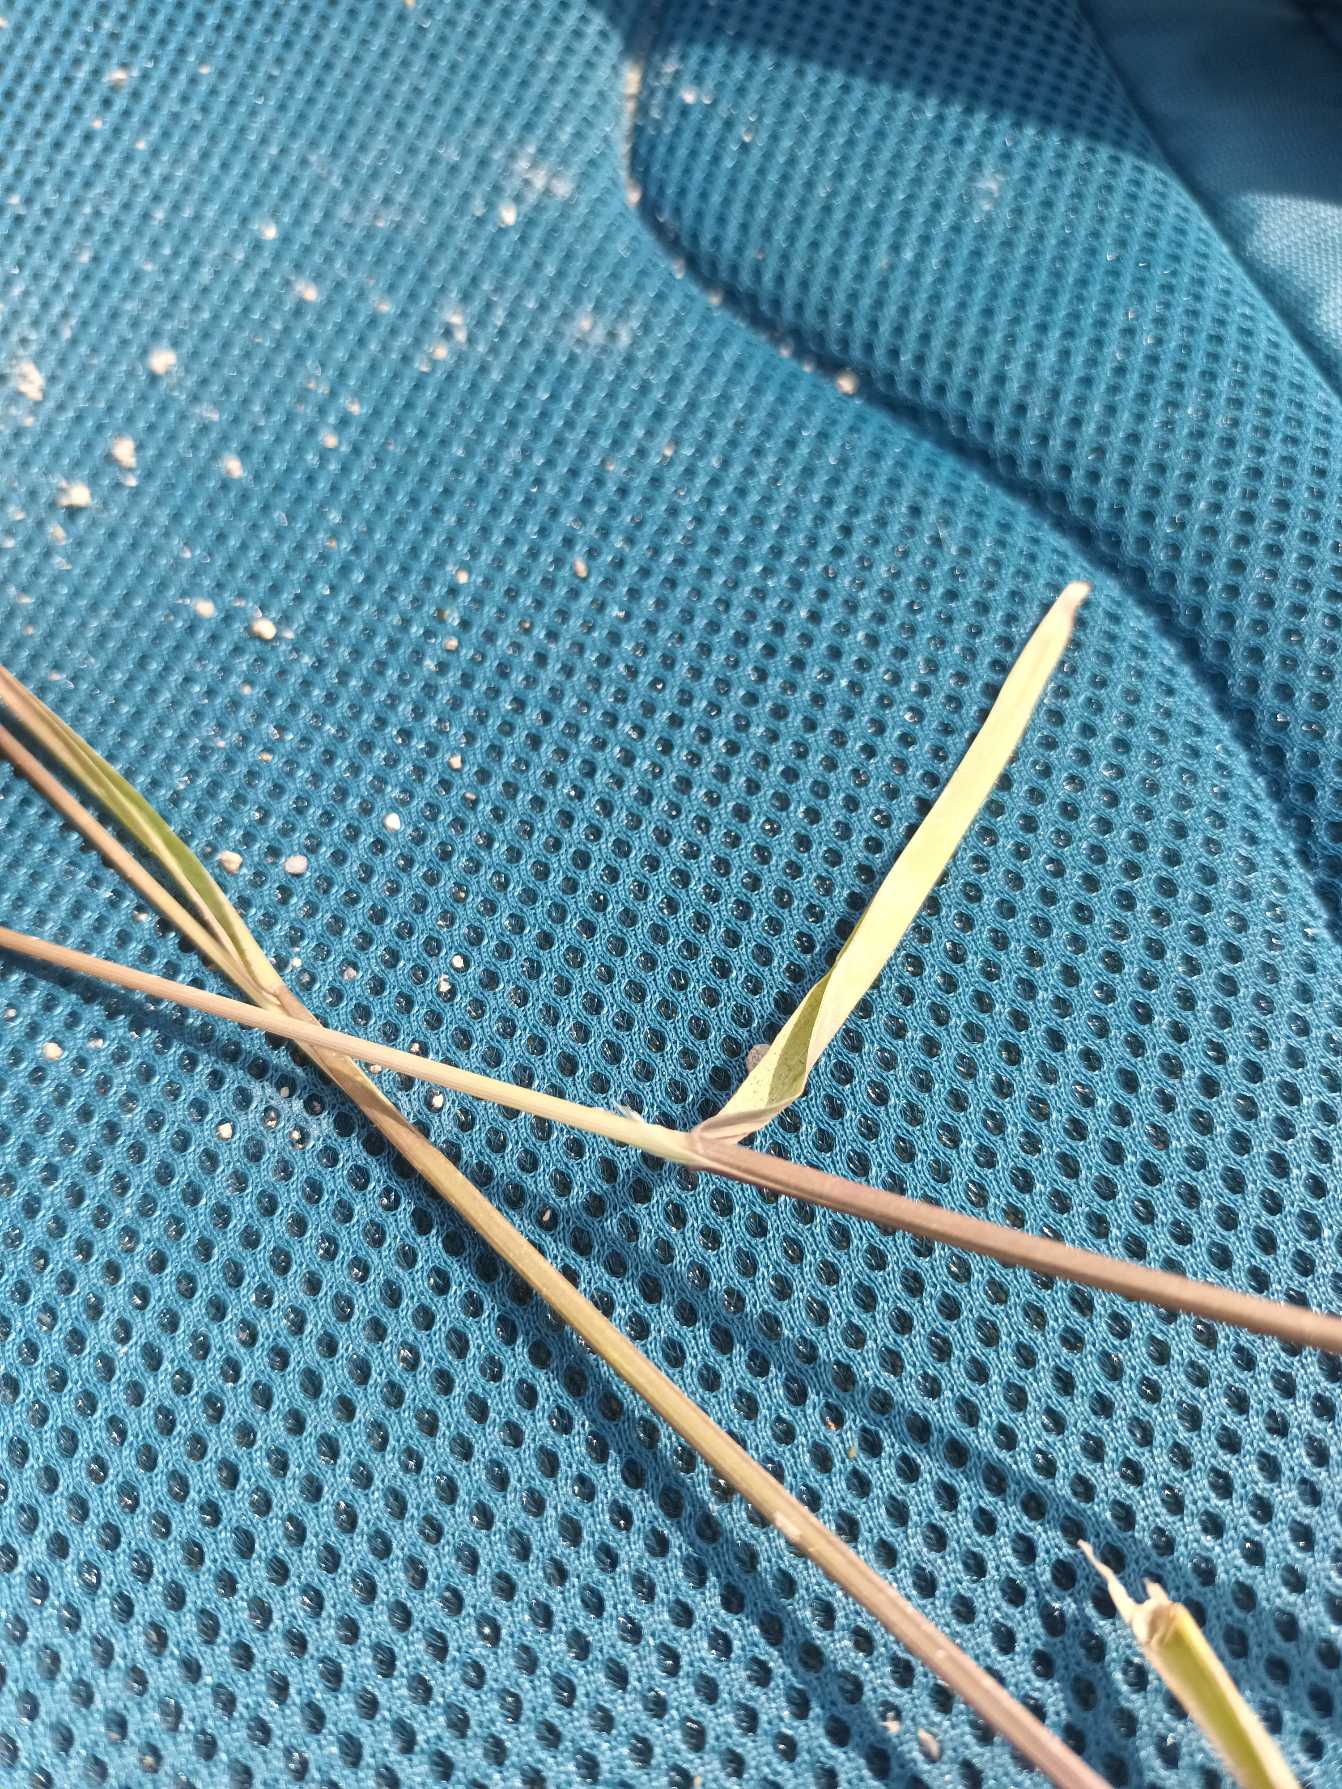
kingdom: Plantae
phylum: Tracheophyta
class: Liliopsida
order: Poales
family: Poaceae
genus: Agrostis
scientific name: Agrostis gigantea
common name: Stortoppet hvene
